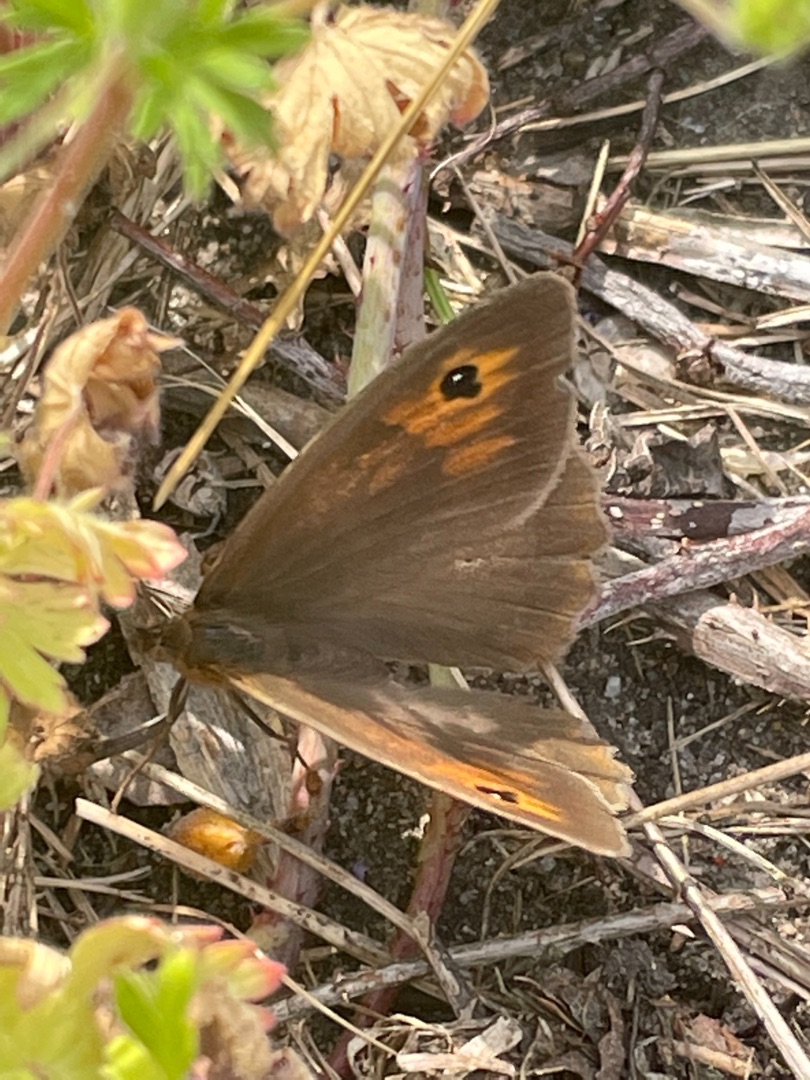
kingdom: Animalia
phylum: Arthropoda
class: Insecta
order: Lepidoptera
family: Nymphalidae
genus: Maniola
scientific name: Maniola jurtina
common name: Græsrandøje
